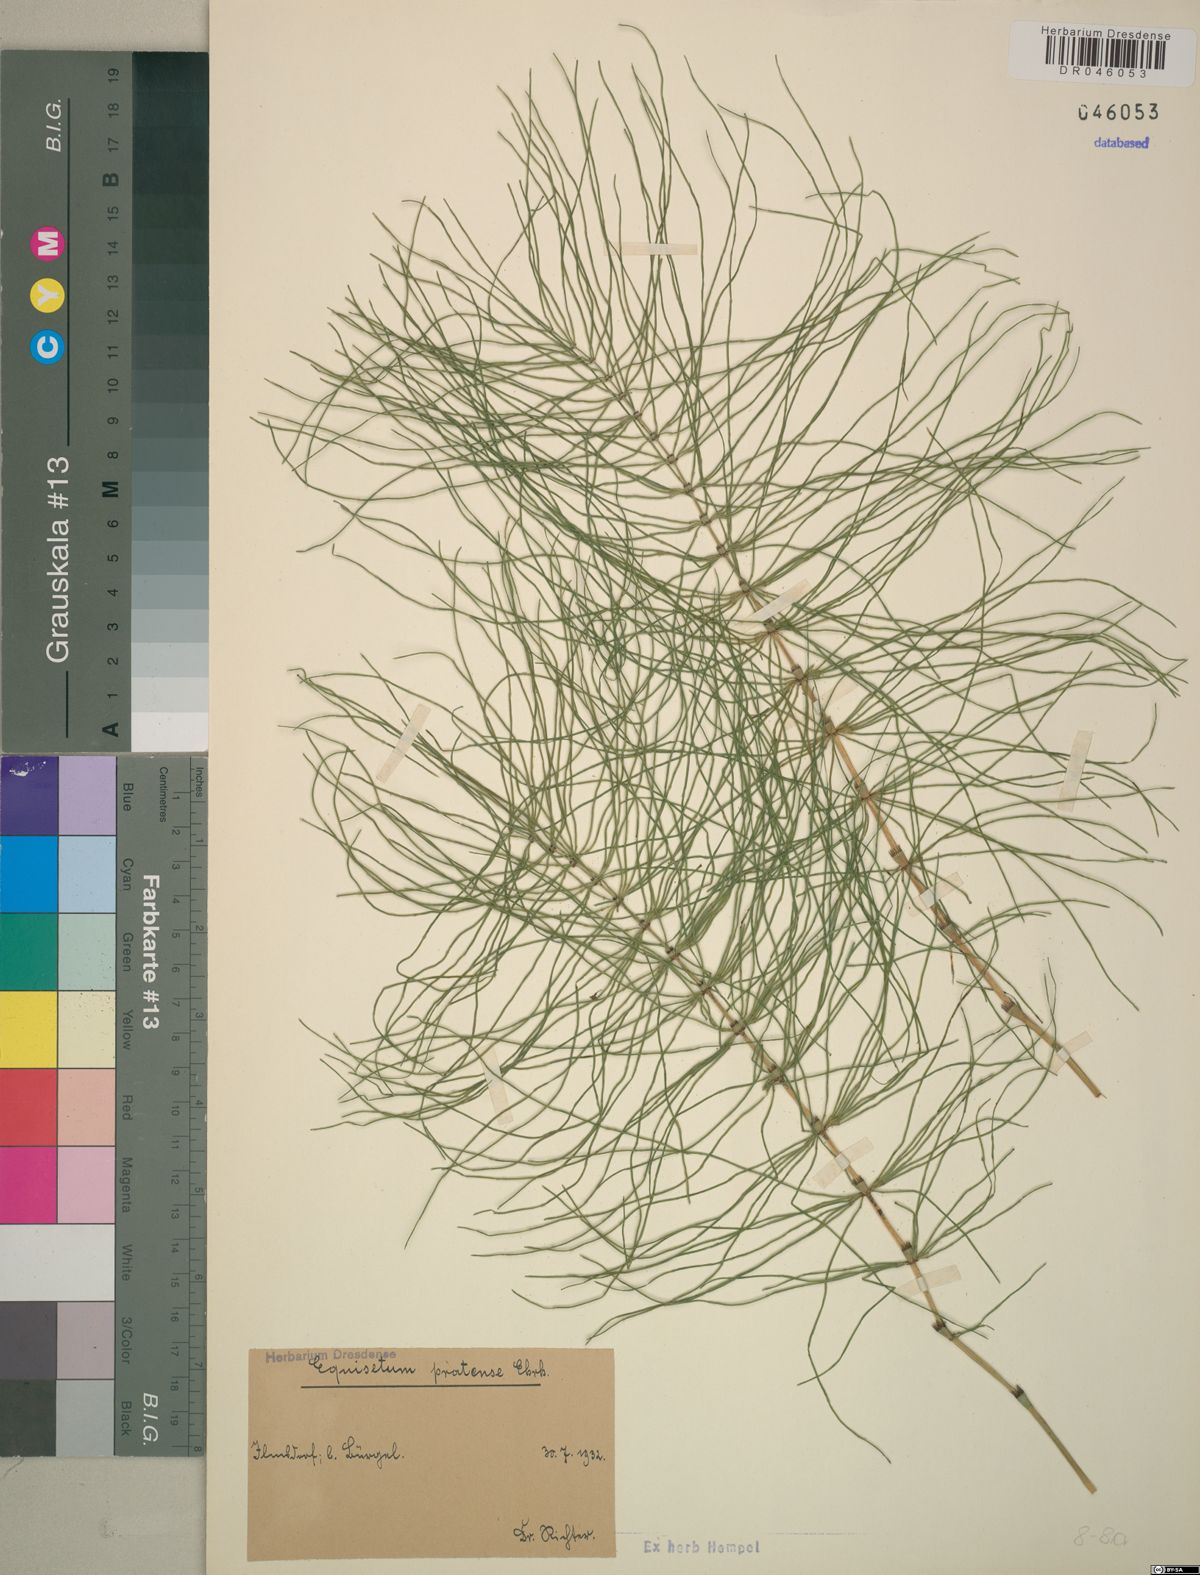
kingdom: Plantae
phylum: Tracheophyta
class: Polypodiopsida
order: Equisetales
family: Equisetaceae
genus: Equisetum
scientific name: Equisetum pratense
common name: Meadow horsetail
